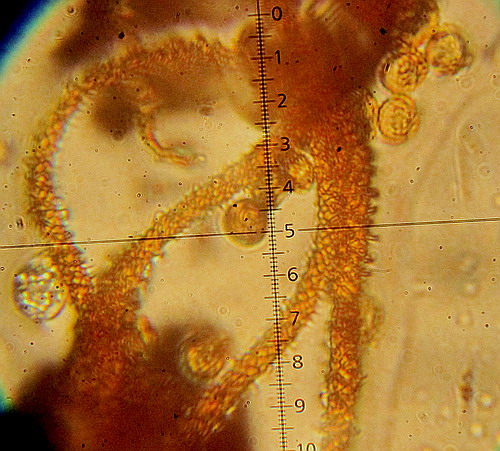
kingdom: Protozoa
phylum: Mycetozoa
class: Myxomycetes
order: Trichiales
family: Trichiaceae
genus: Metatrichia
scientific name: Metatrichia vesparia
